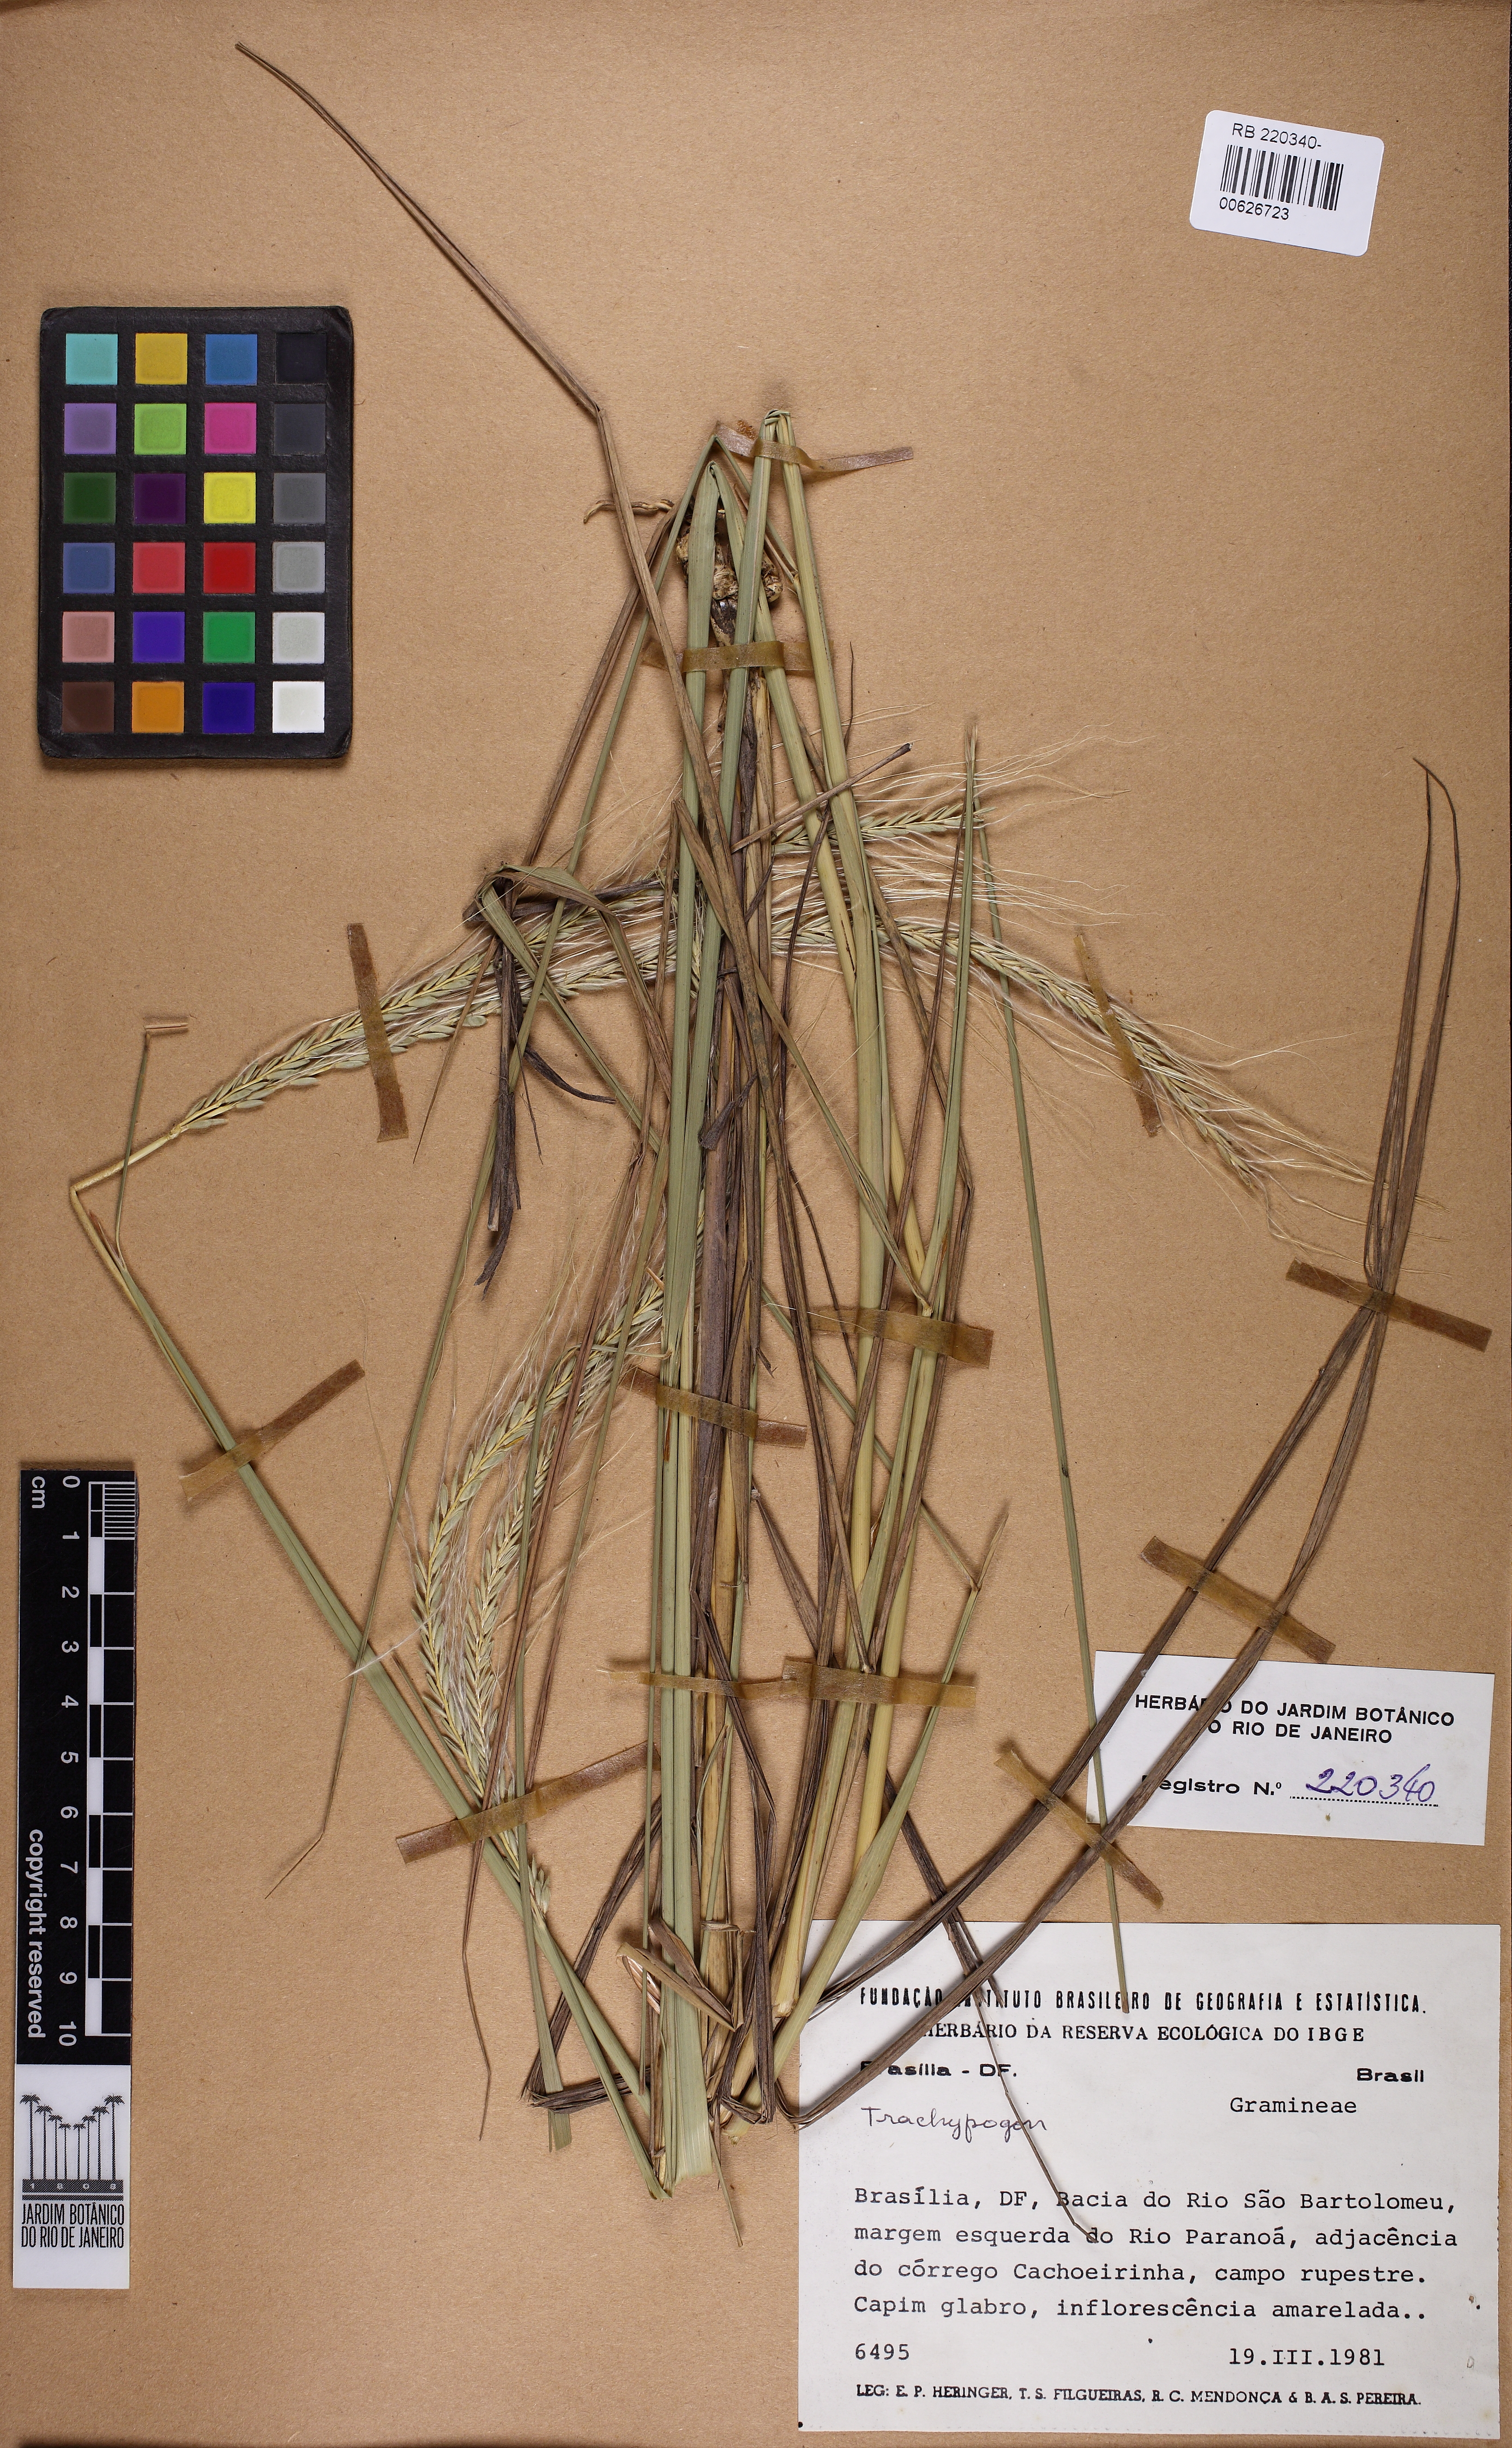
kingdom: Plantae
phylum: Tracheophyta
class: Liliopsida
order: Poales
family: Poaceae
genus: Trachypogon
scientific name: Trachypogon
